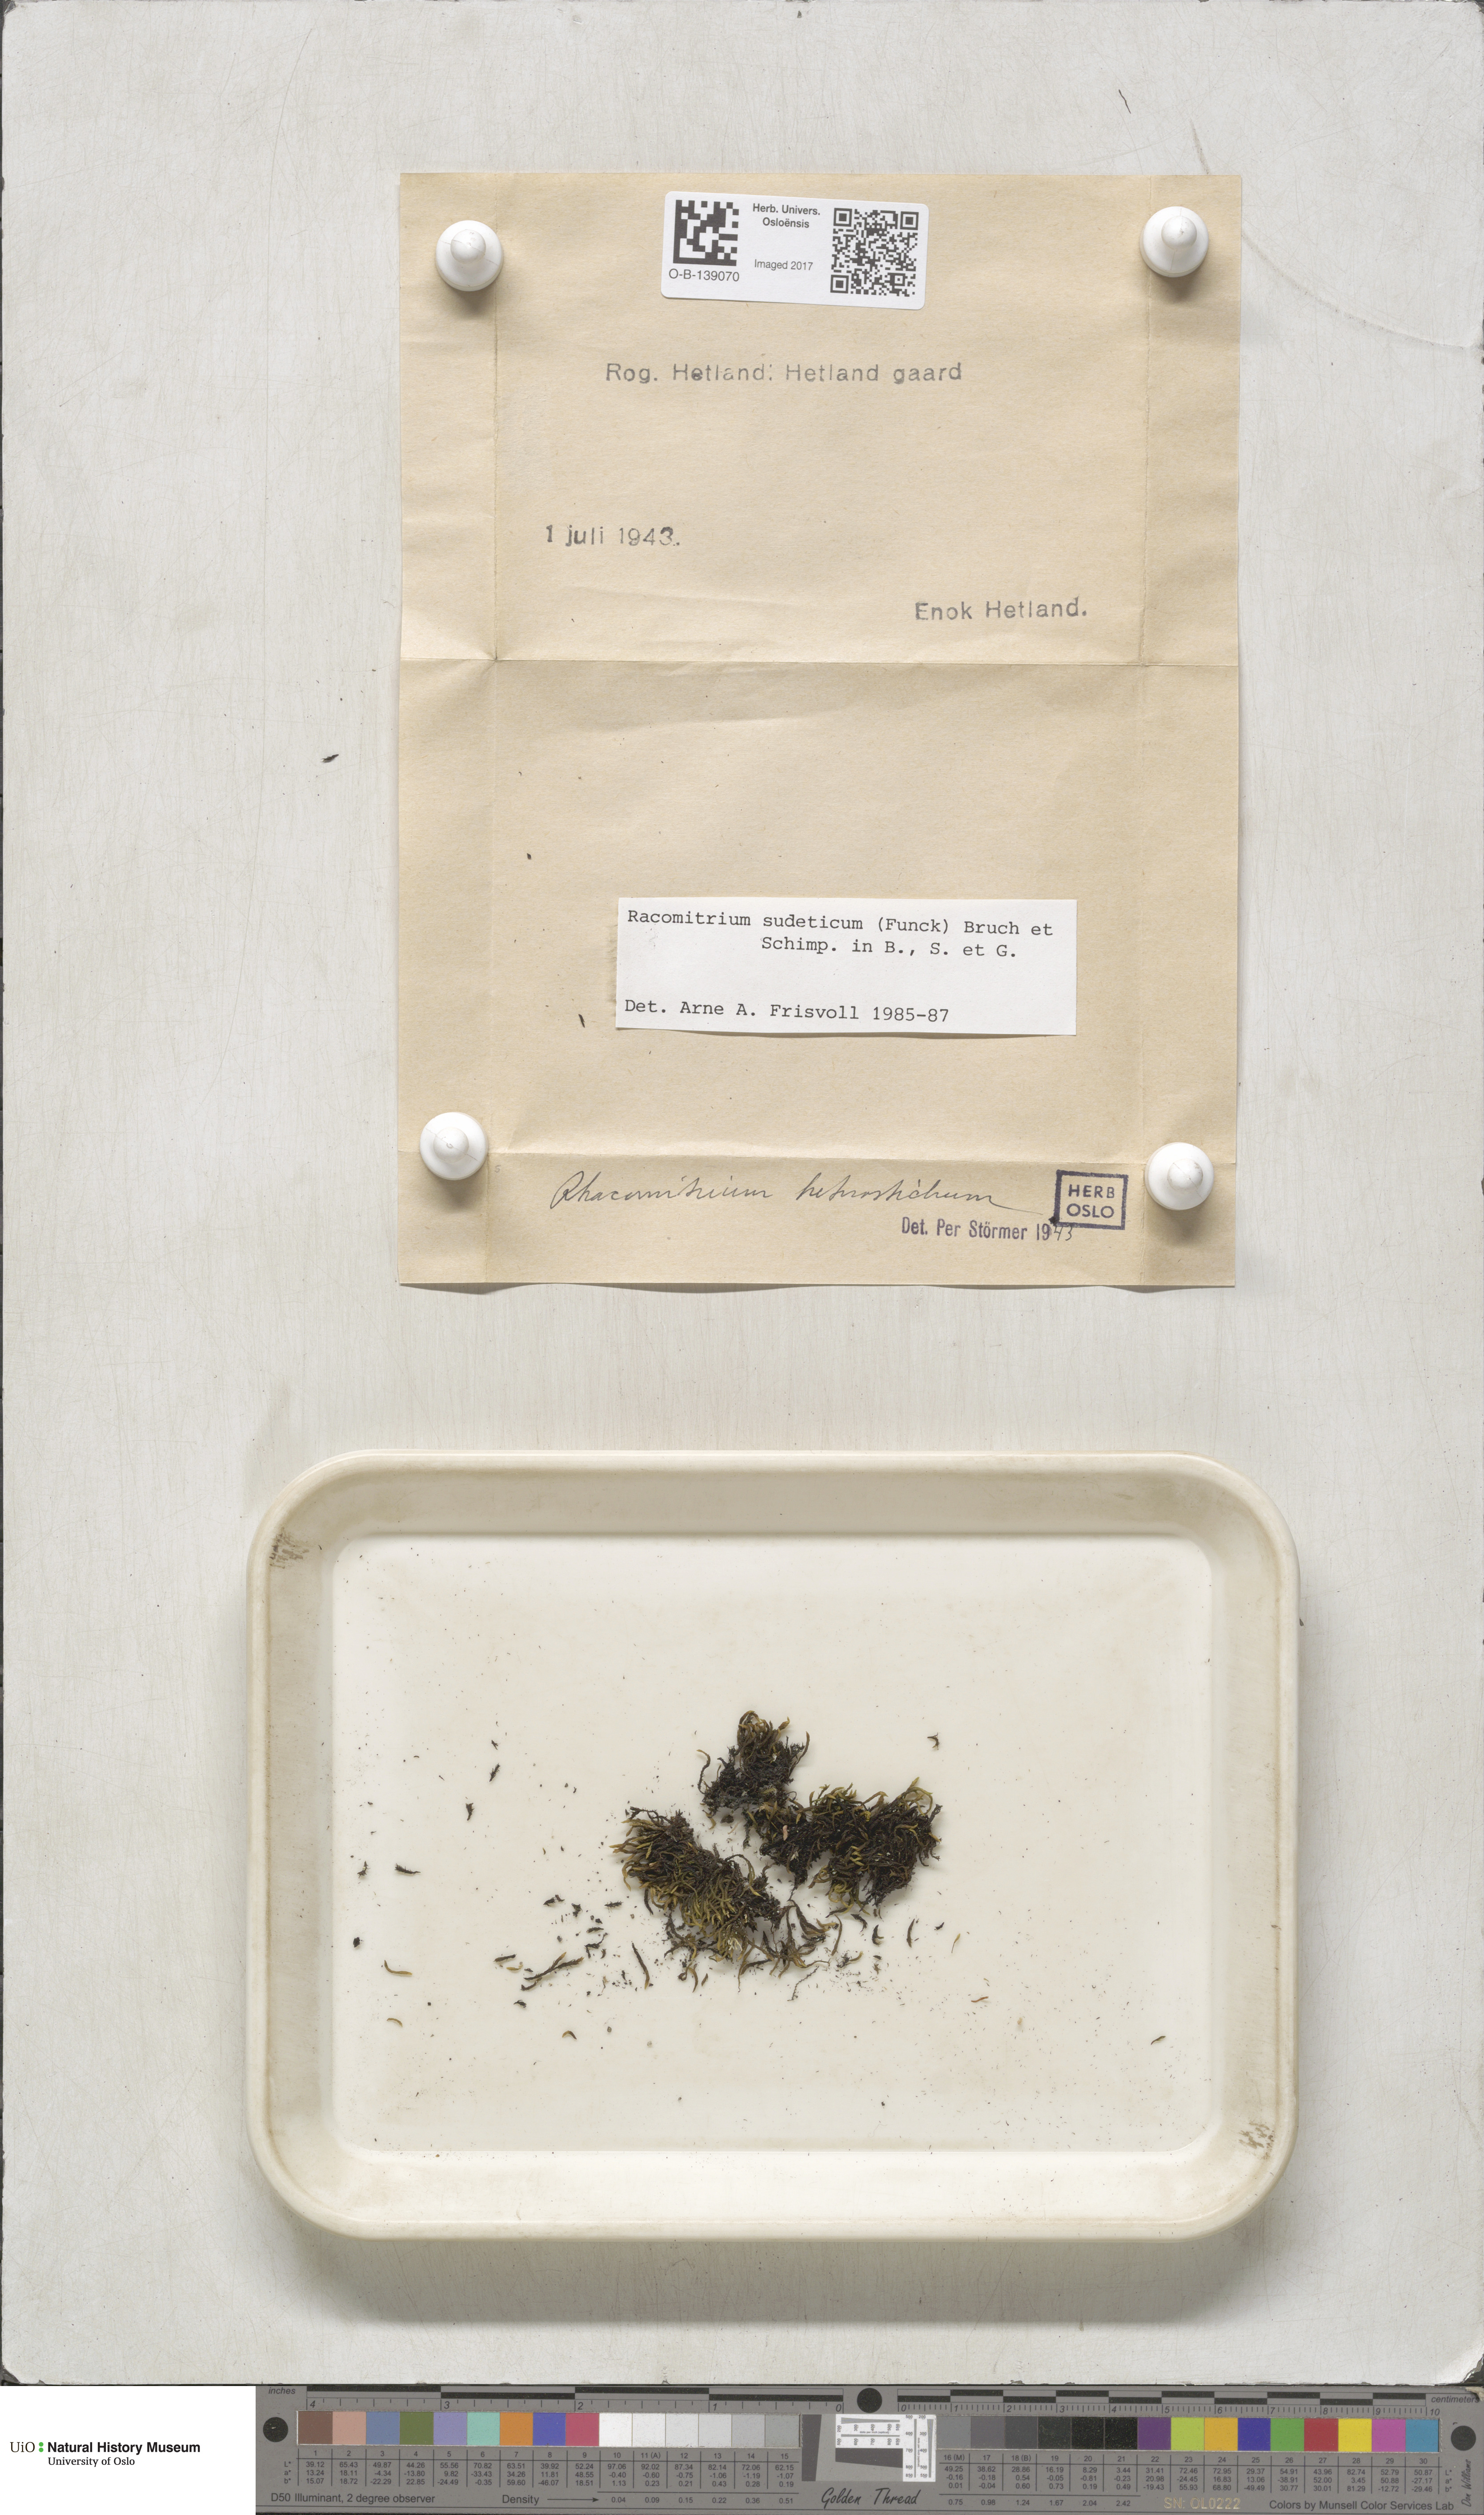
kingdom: Plantae
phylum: Bryophyta
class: Bryopsida
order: Grimmiales
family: Grimmiaceae
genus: Bucklandiella
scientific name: Bucklandiella sudetica
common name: Slender fringe-moss
